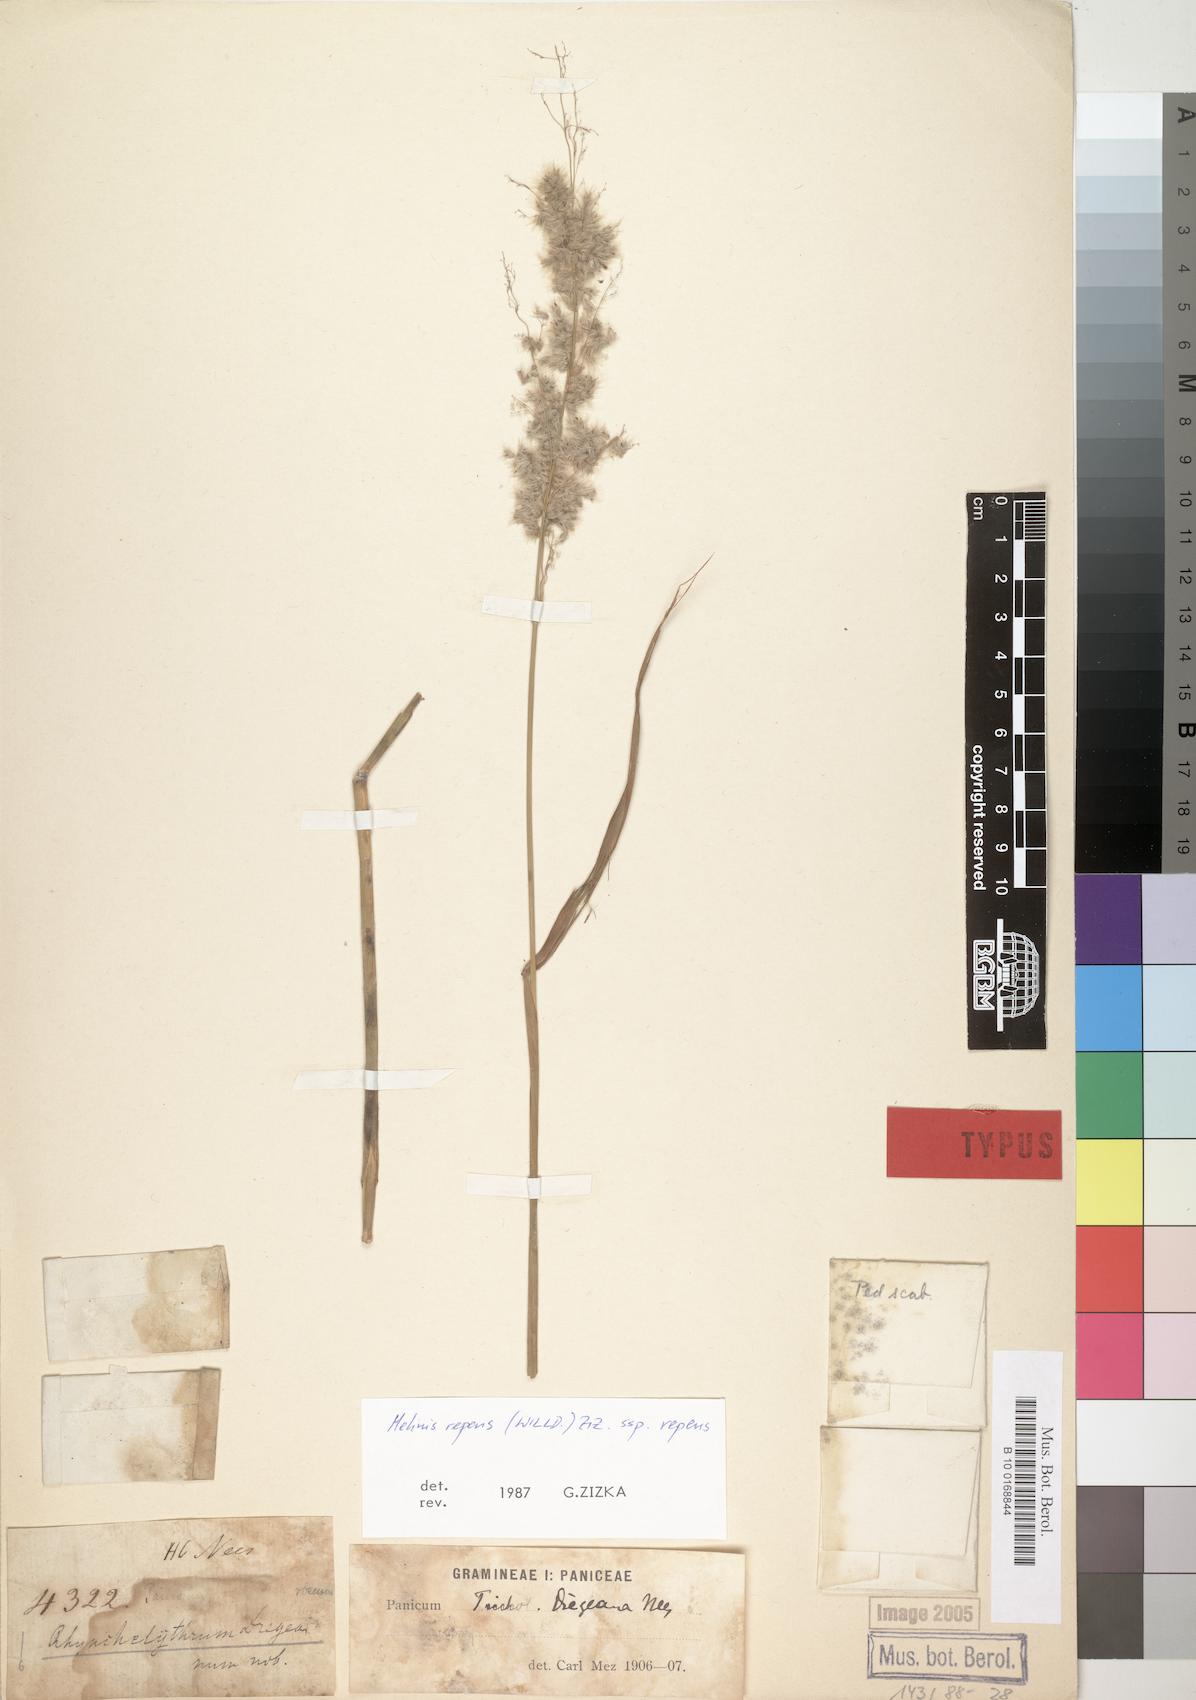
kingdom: Plantae
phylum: Tracheophyta
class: Liliopsida
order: Poales
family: Poaceae
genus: Melinis
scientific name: Melinis repens
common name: Rose natal grass
